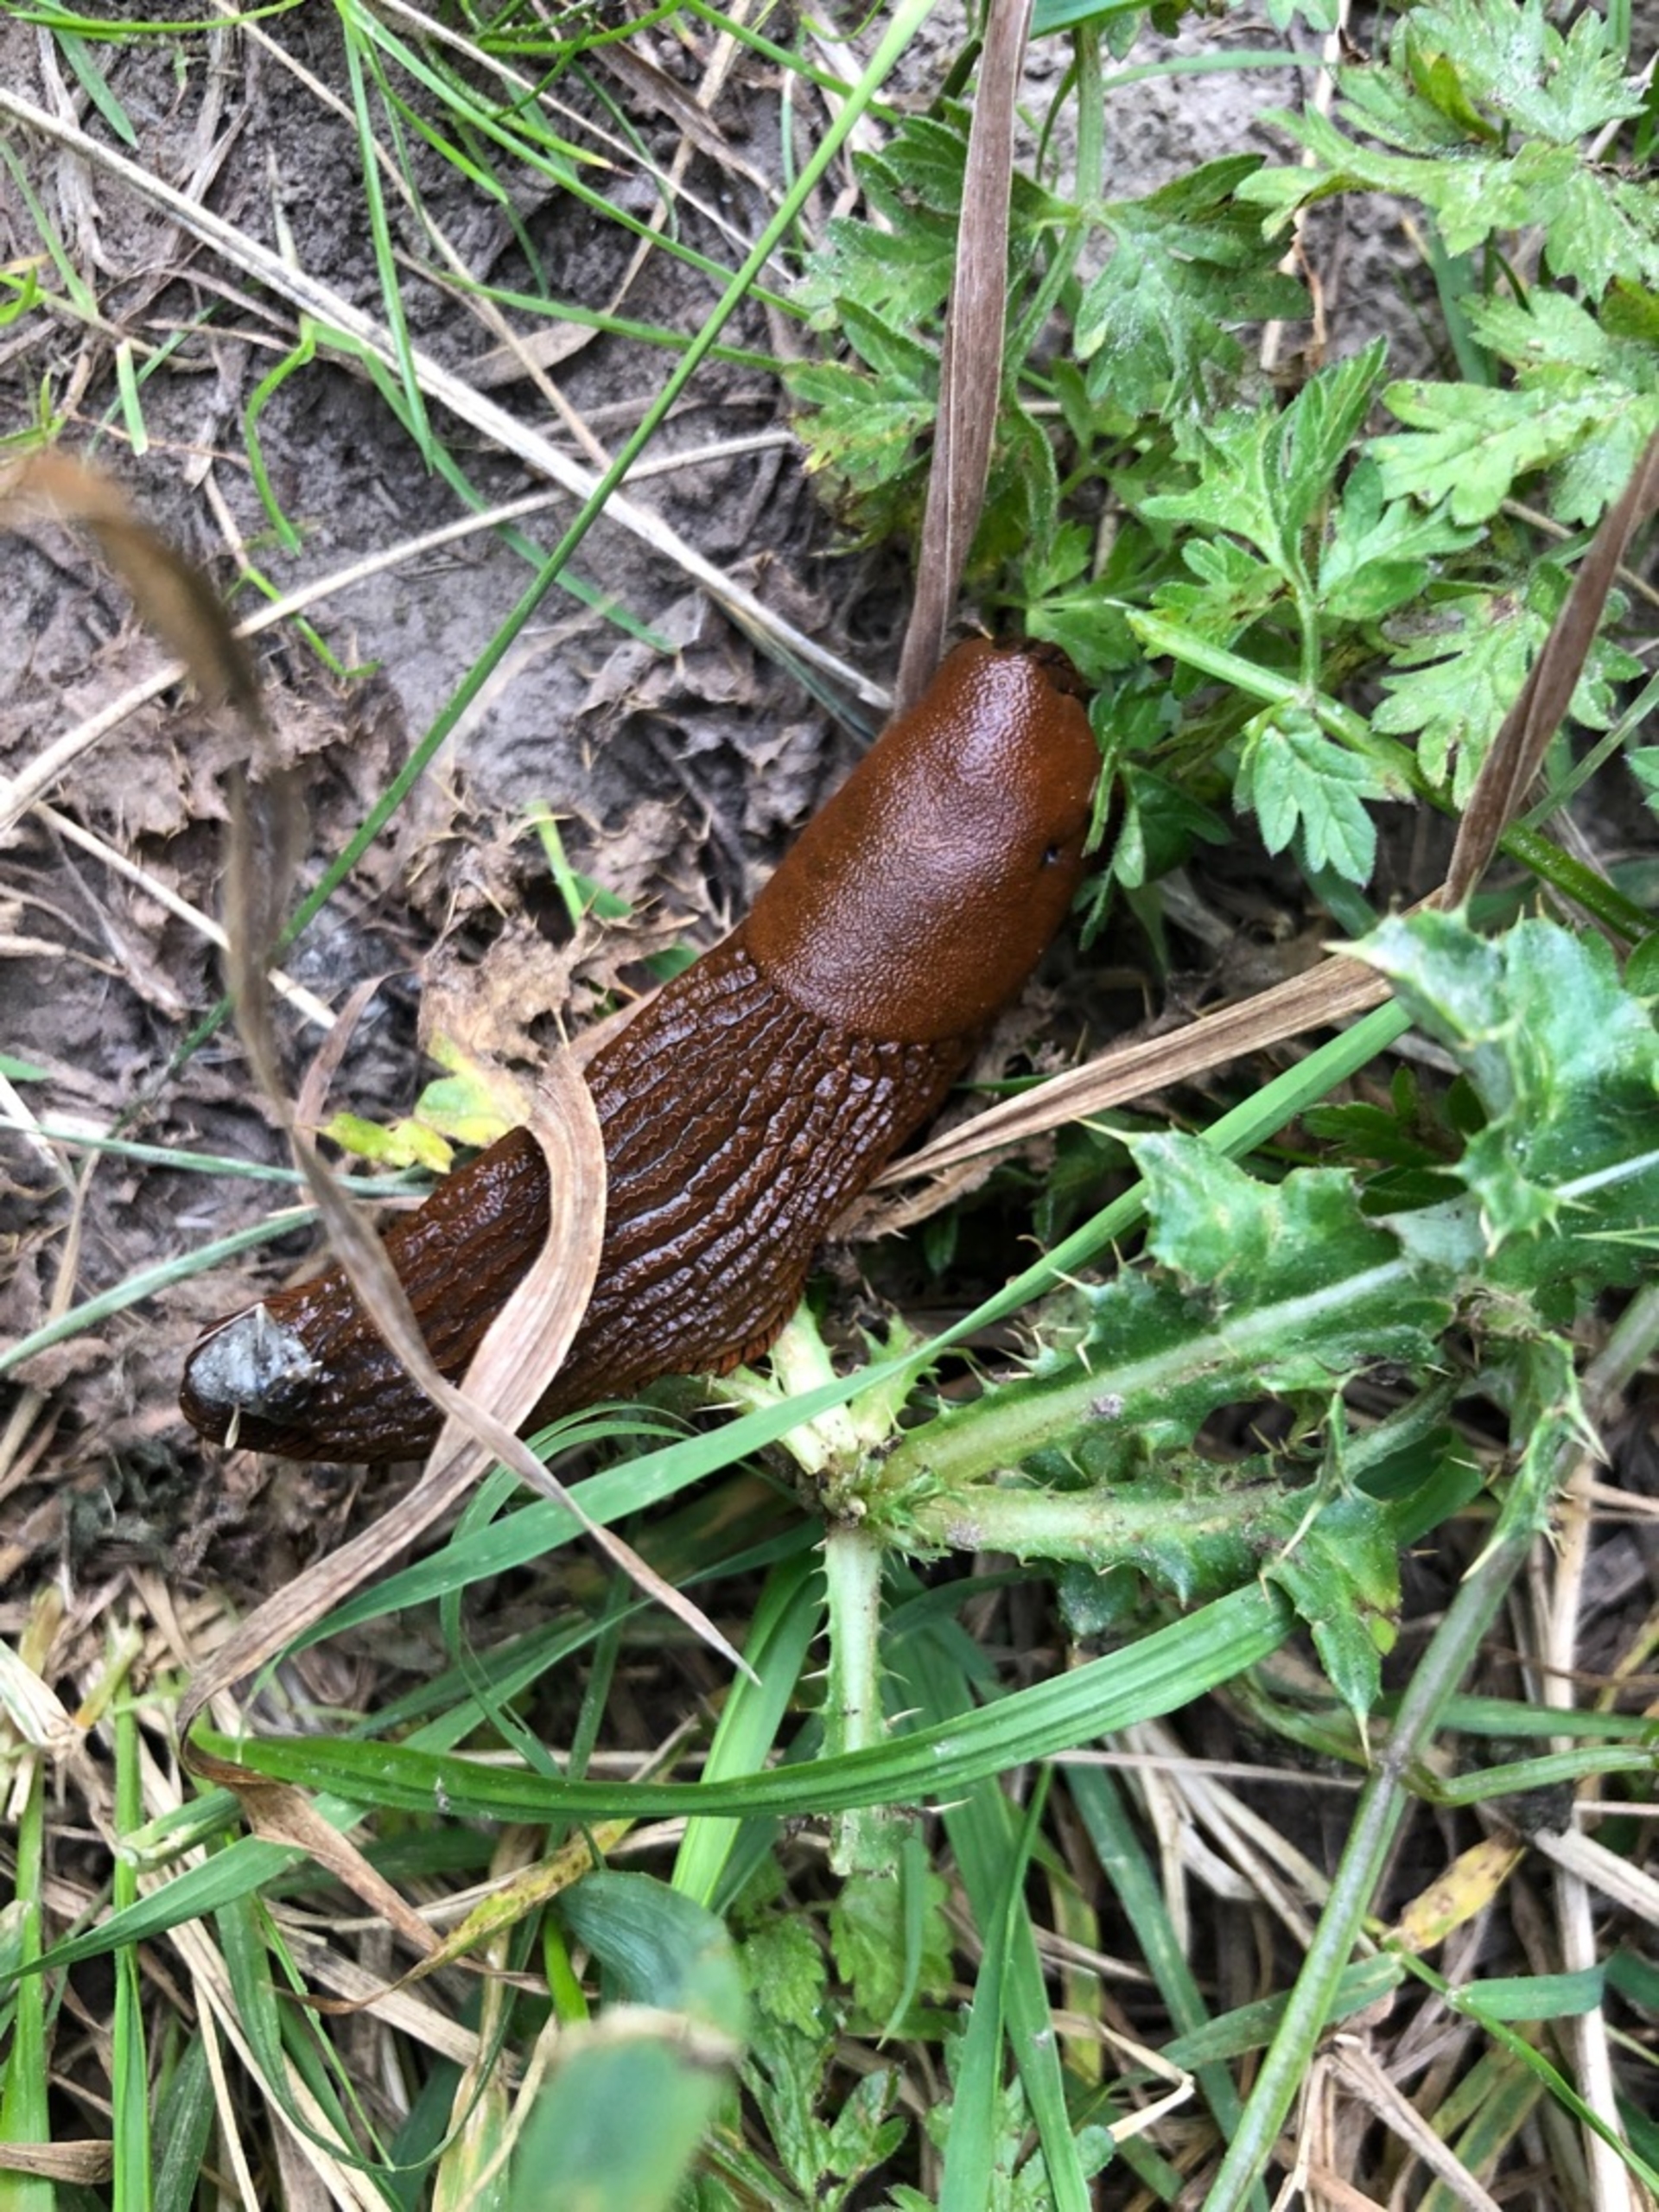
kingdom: Animalia
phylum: Mollusca
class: Gastropoda
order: Stylommatophora
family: Arionidae
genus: Arion
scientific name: Arion vulgaris
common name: Iberisk skovsnegl
